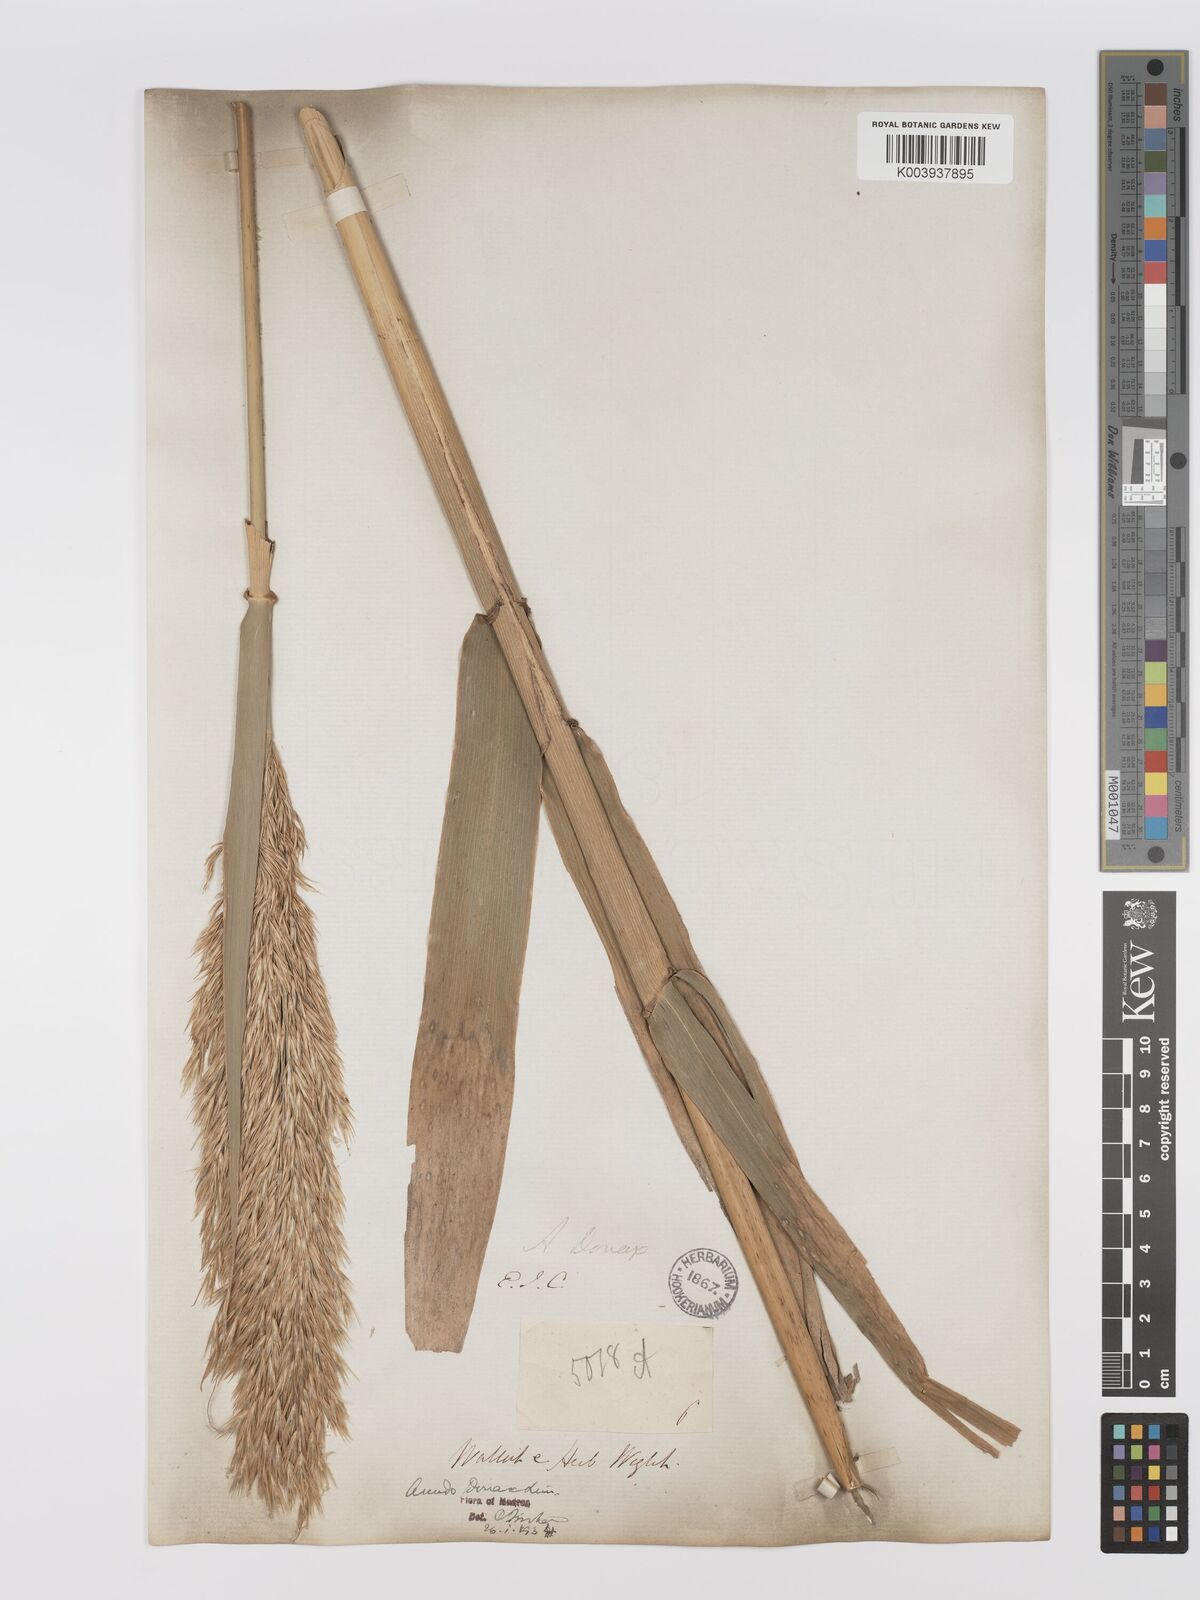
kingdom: Plantae
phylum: Tracheophyta
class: Liliopsida
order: Poales
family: Poaceae
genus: Arundo
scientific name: Arundo
